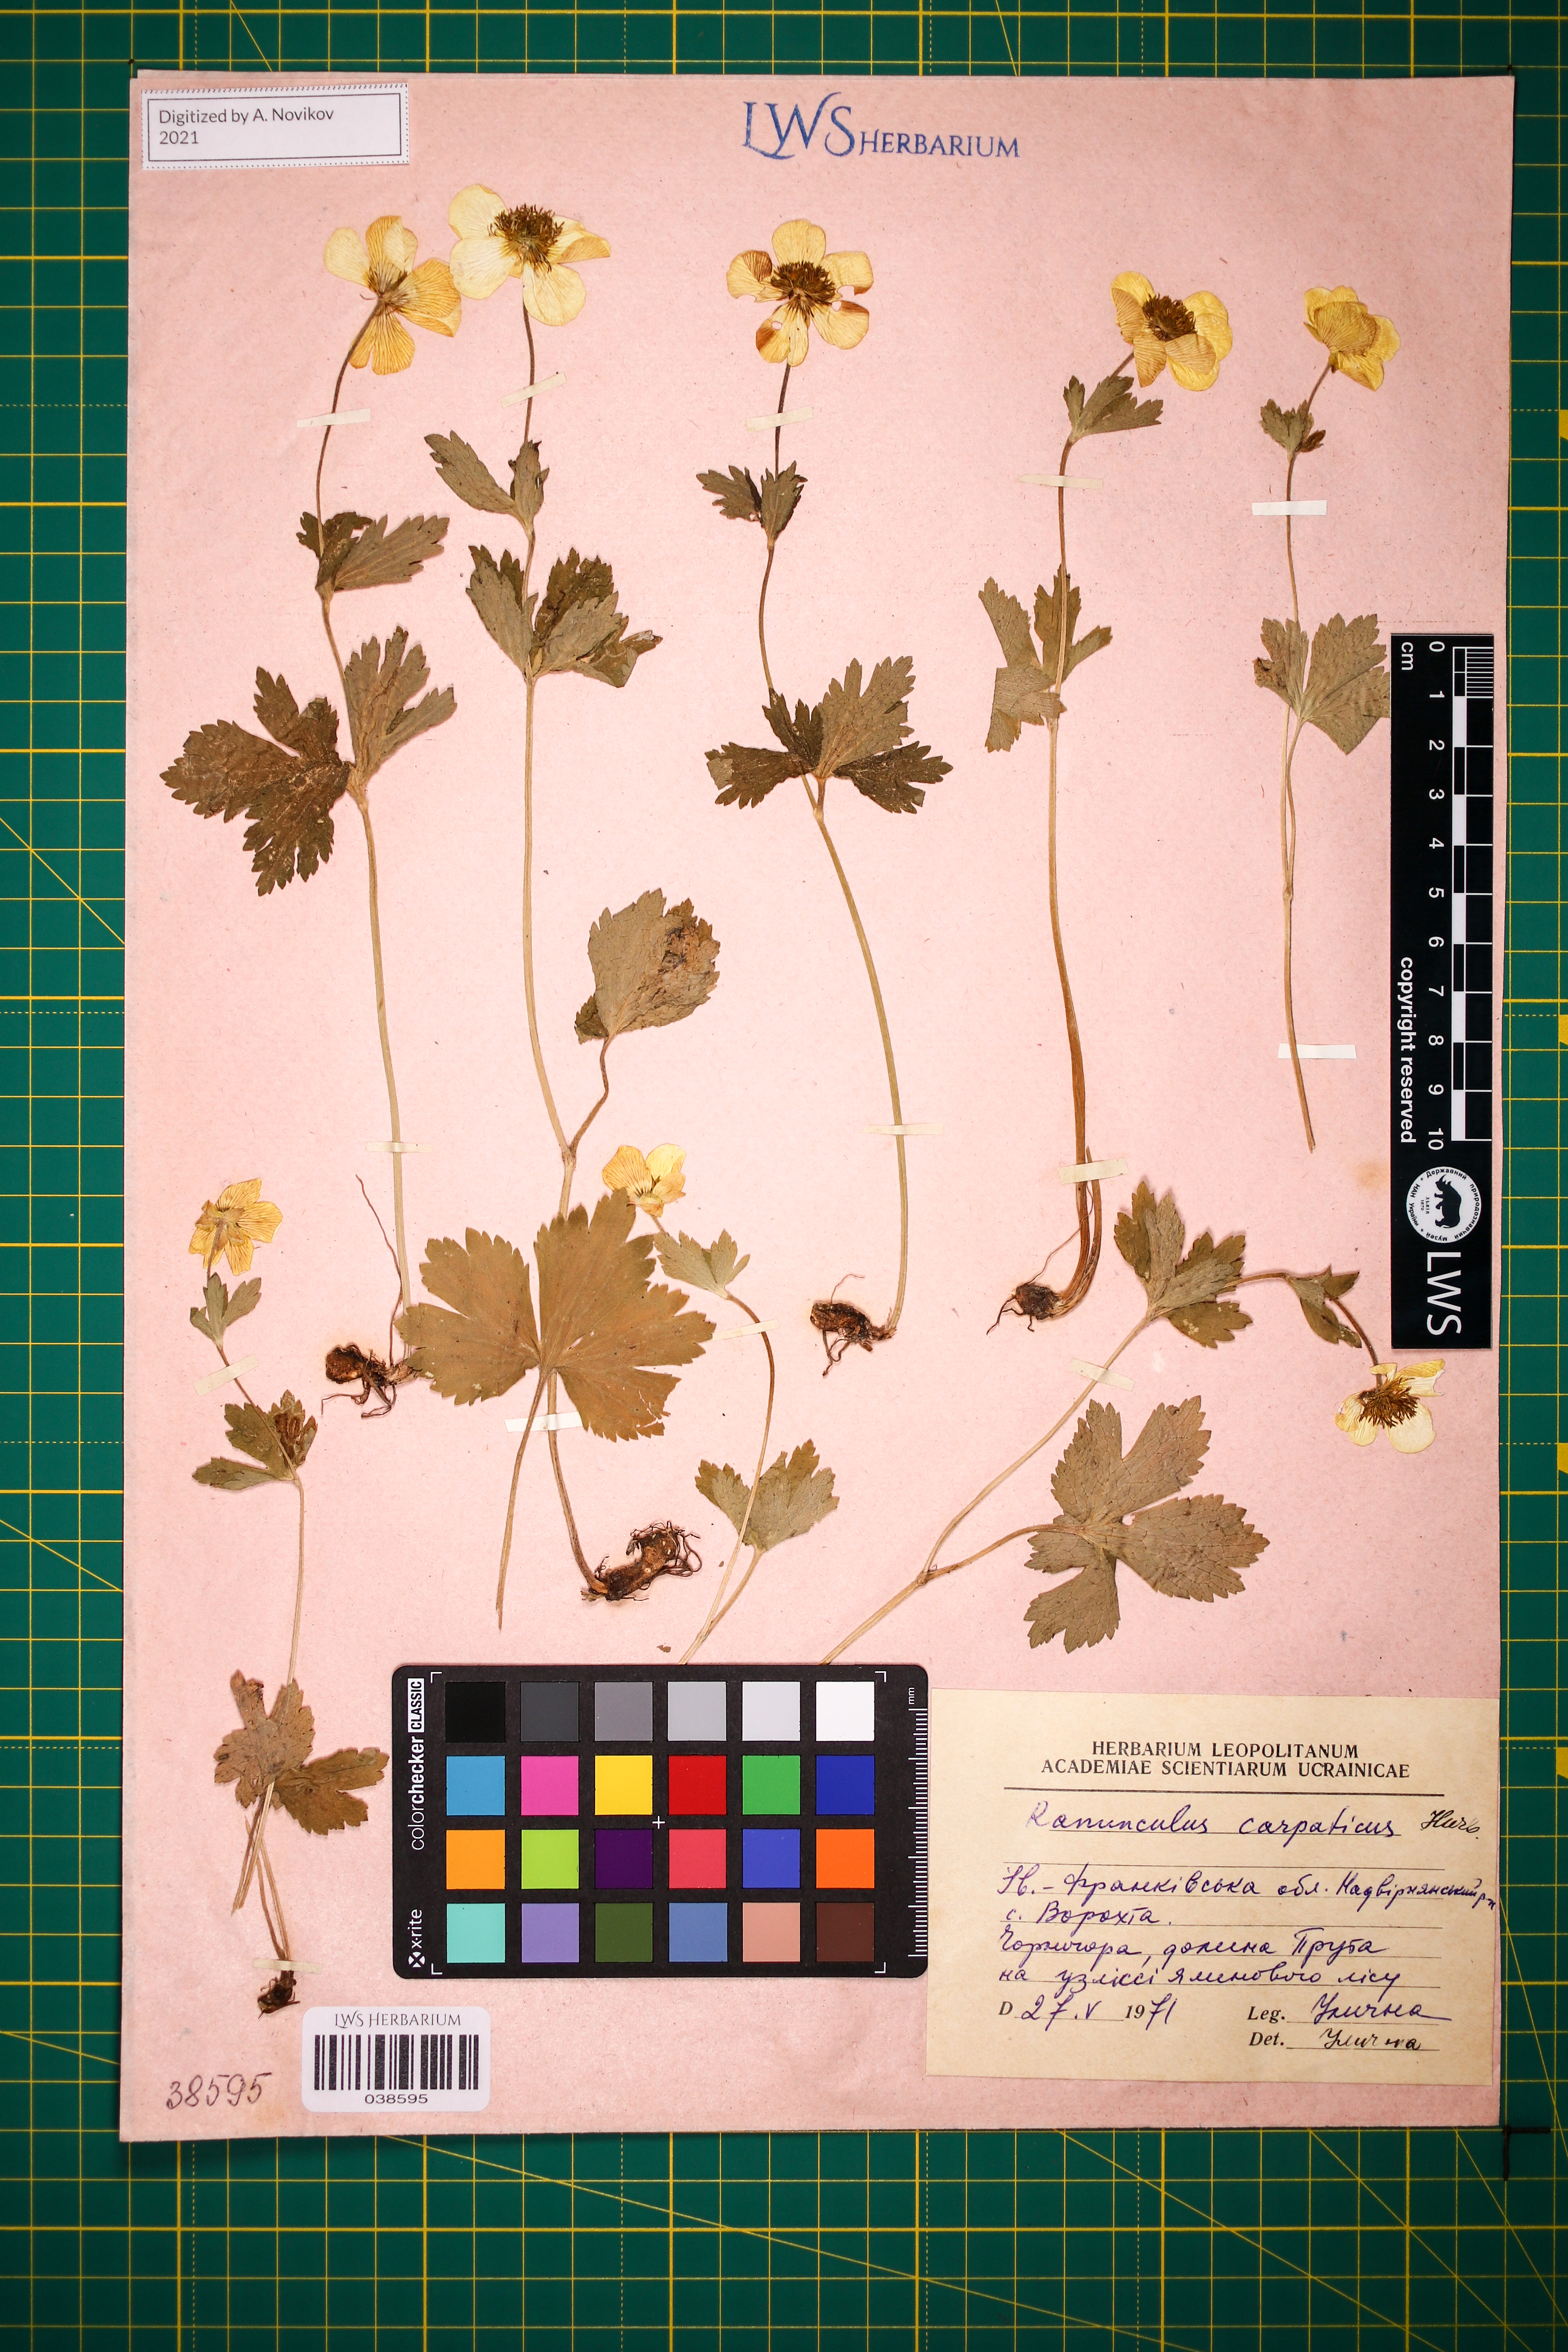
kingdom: Plantae
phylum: Tracheophyta
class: Magnoliopsida
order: Ranunculales
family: Ranunculaceae
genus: Ranunculus
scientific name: Ranunculus carpaticus
